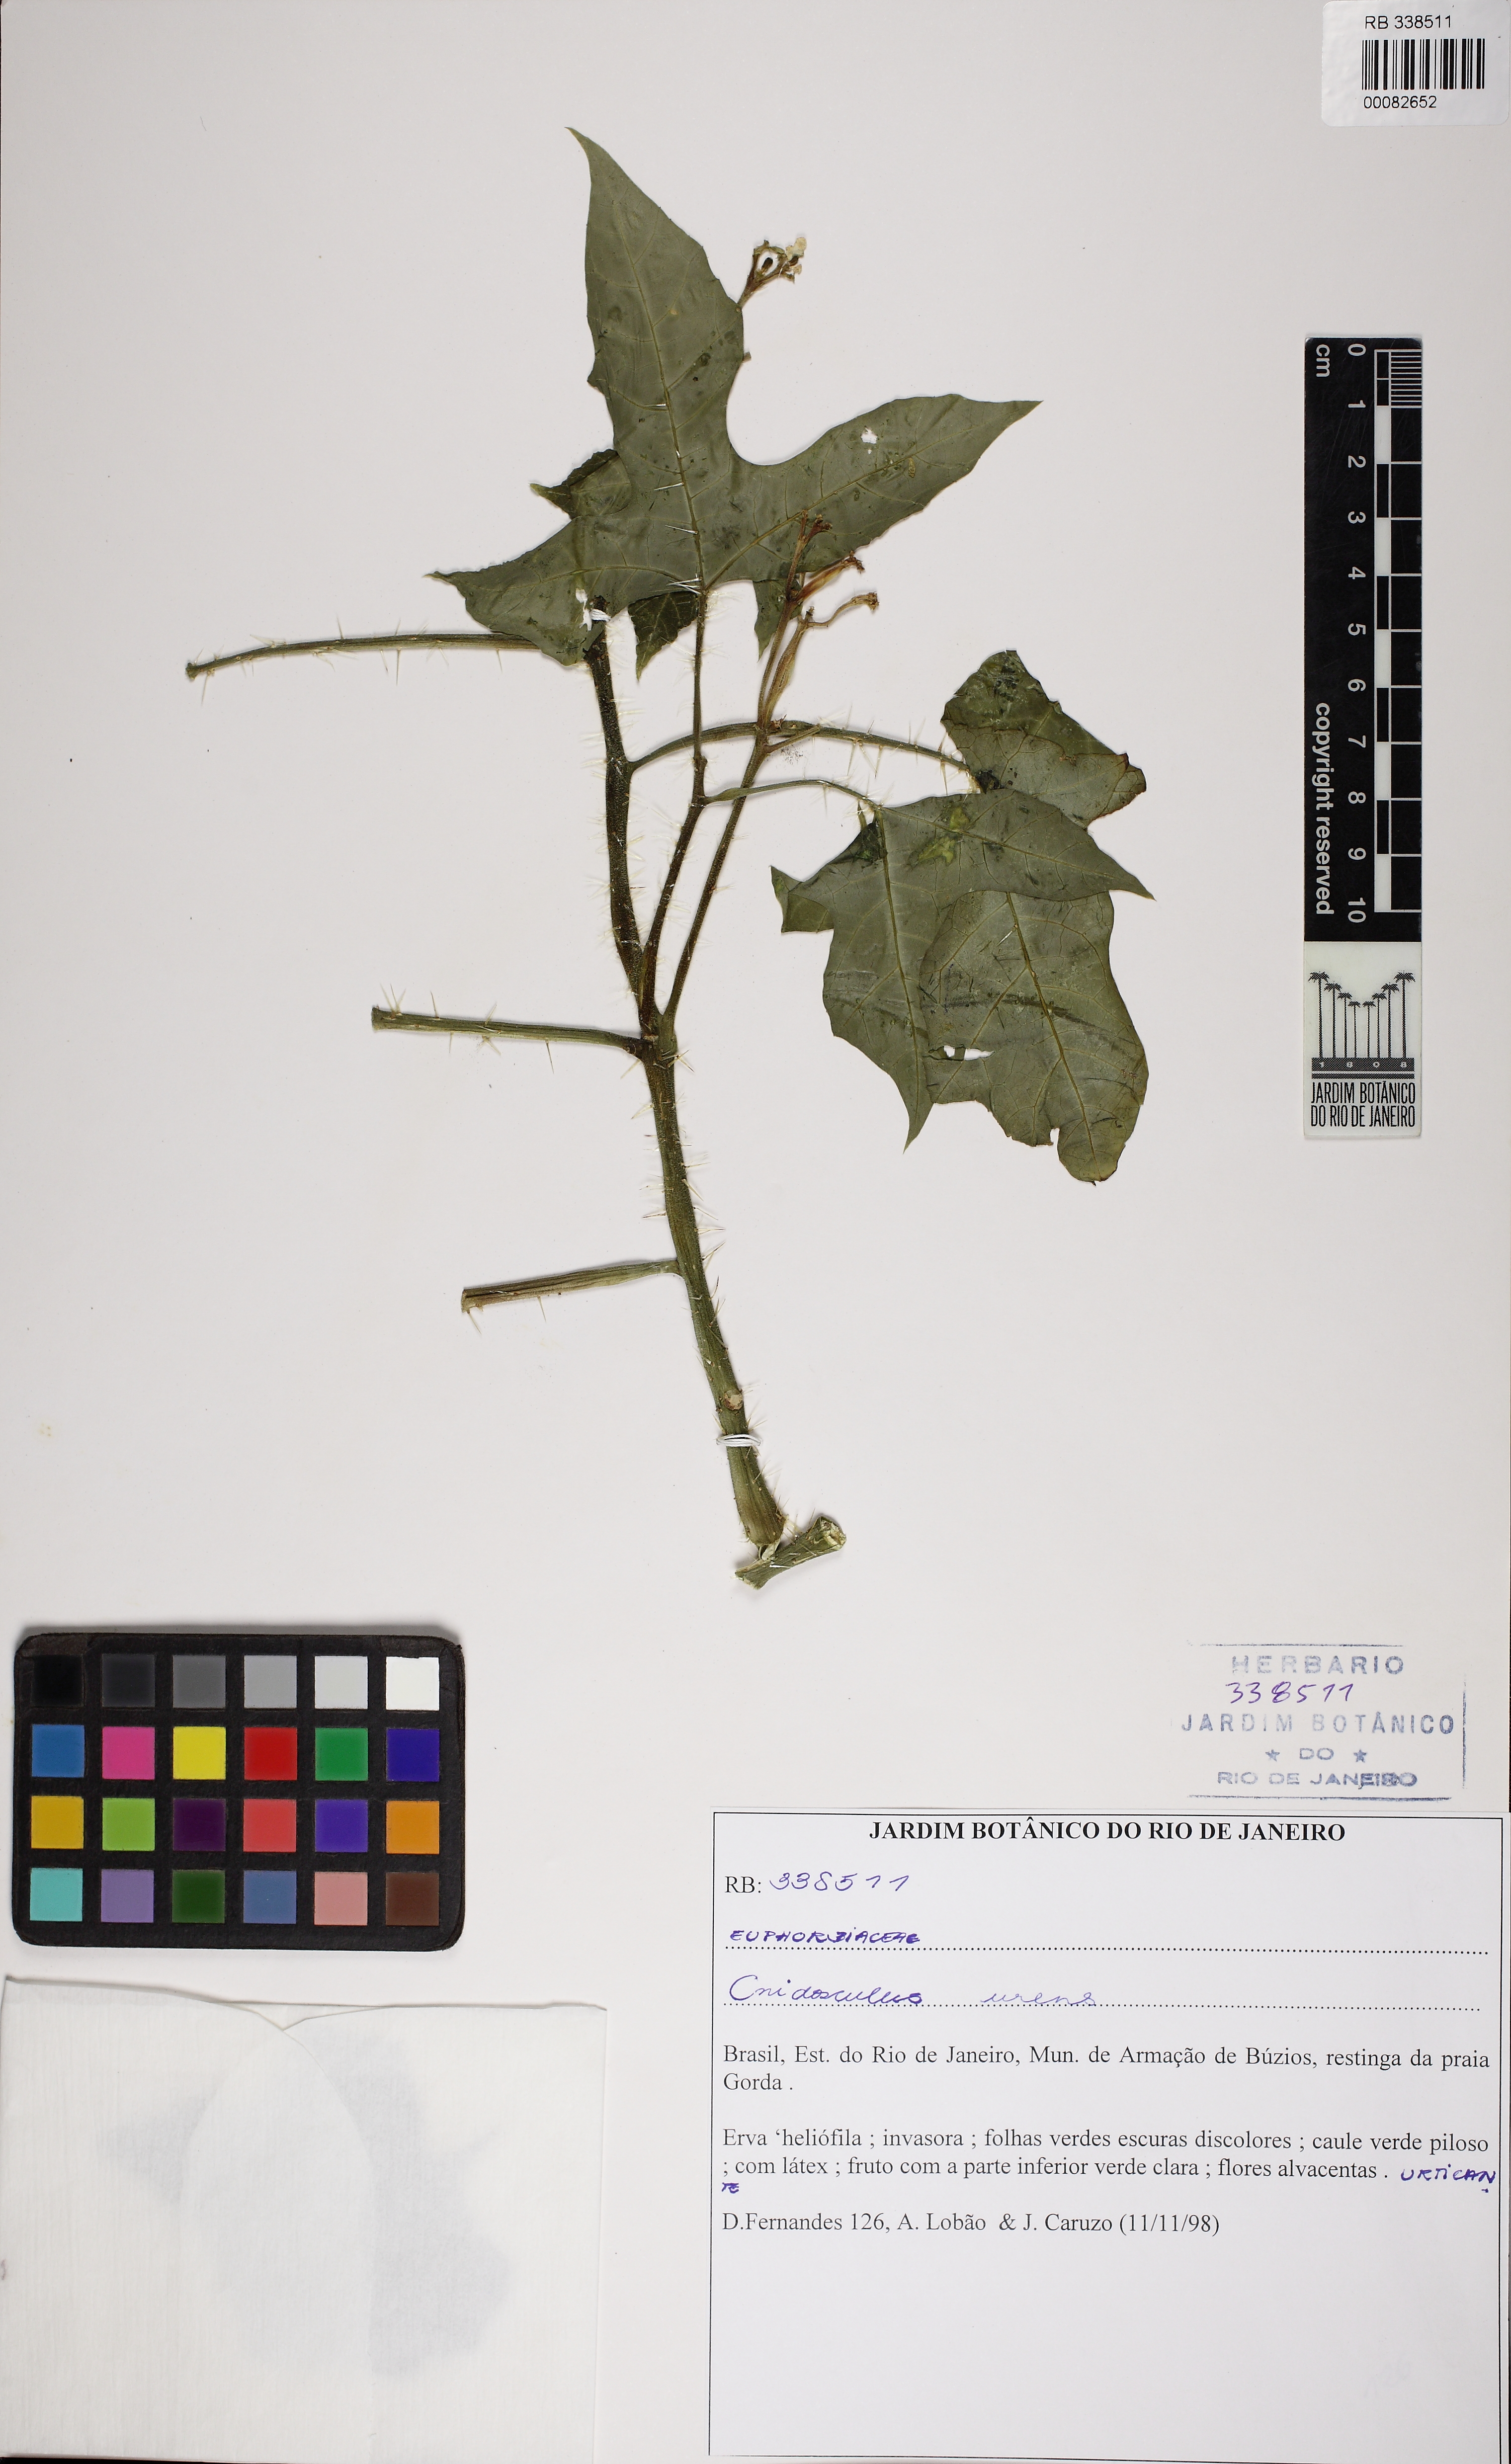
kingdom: Plantae
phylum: Tracheophyta
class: Magnoliopsida
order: Malpighiales
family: Euphorbiaceae
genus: Cnidoscolus
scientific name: Cnidoscolus urens
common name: Bull-nettle
